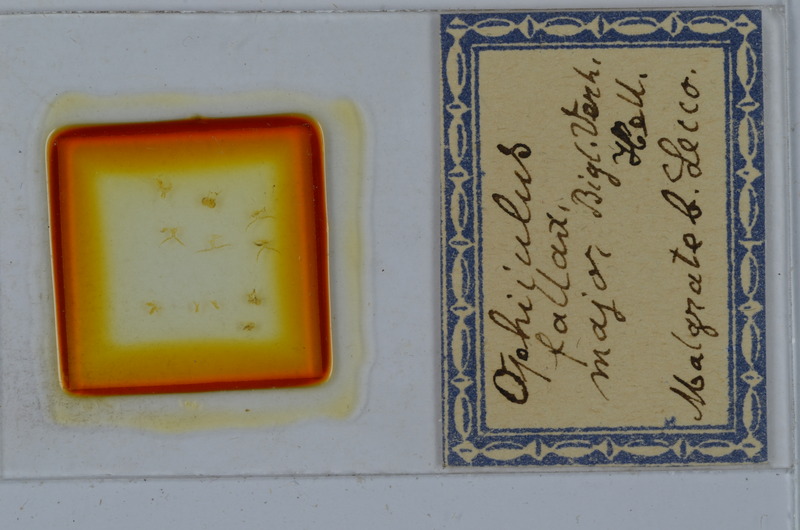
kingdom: Animalia
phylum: Arthropoda
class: Diplopoda
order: Julida
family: Julidae
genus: Ophyiulus
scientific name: Ophyiulus pilosus
